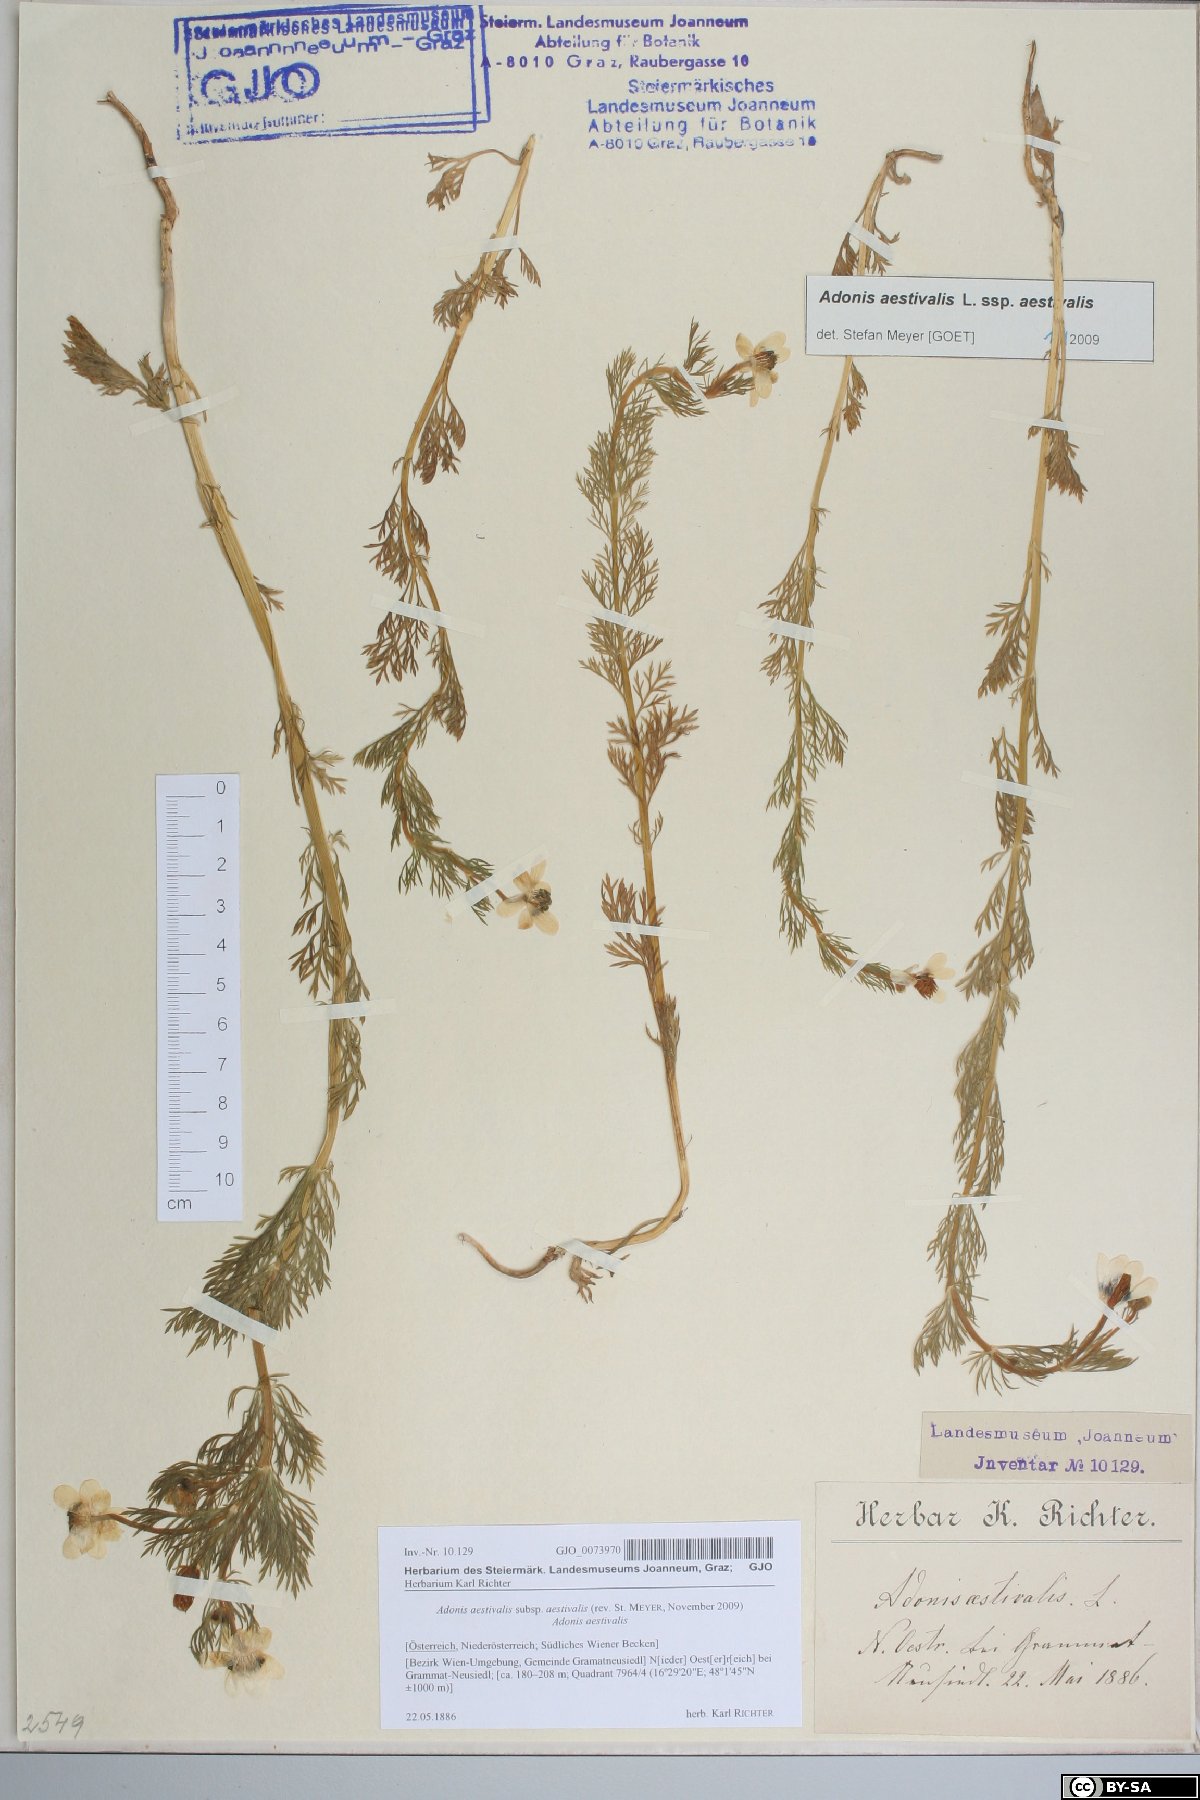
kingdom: Plantae
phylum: Tracheophyta
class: Magnoliopsida
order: Ranunculales
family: Ranunculaceae
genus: Adonis
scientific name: Adonis aestivalis
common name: Summer pheasant's-eye
